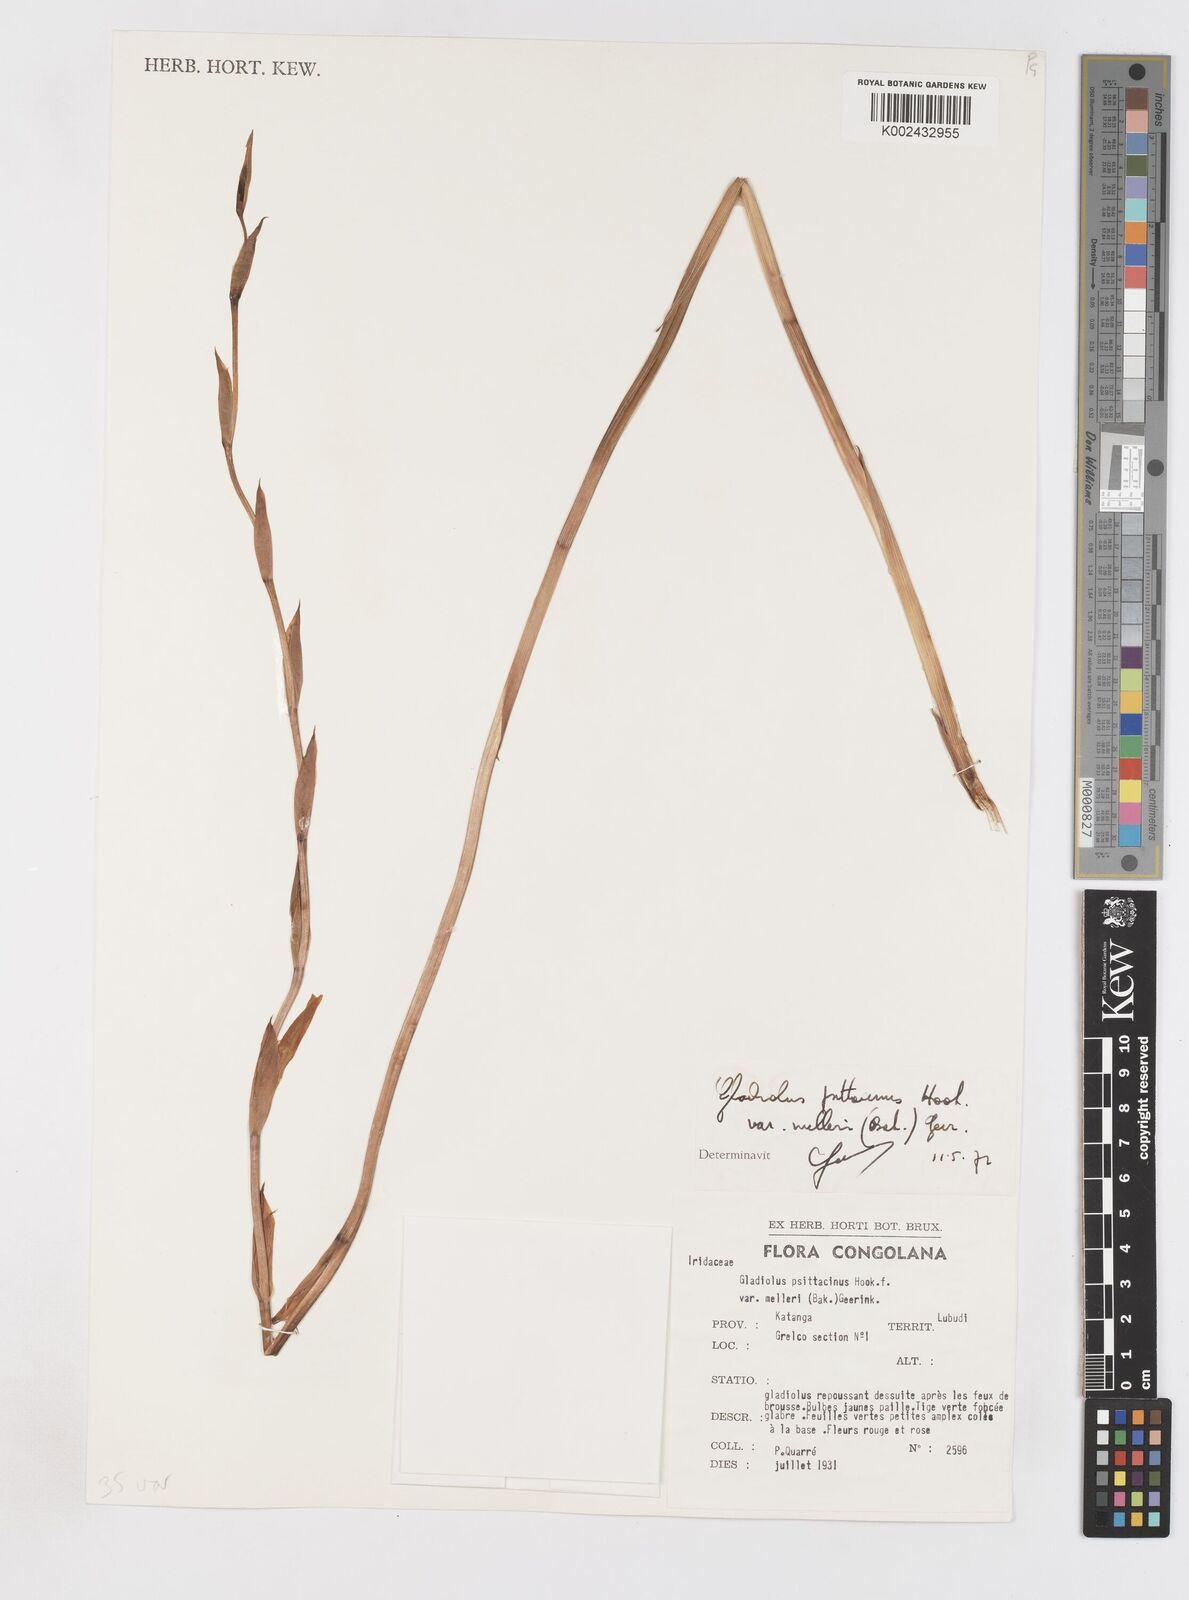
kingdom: Plantae
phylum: Tracheophyta
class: Liliopsida
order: Asparagales
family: Iridaceae
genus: Gladiolus
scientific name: Gladiolus melleri
